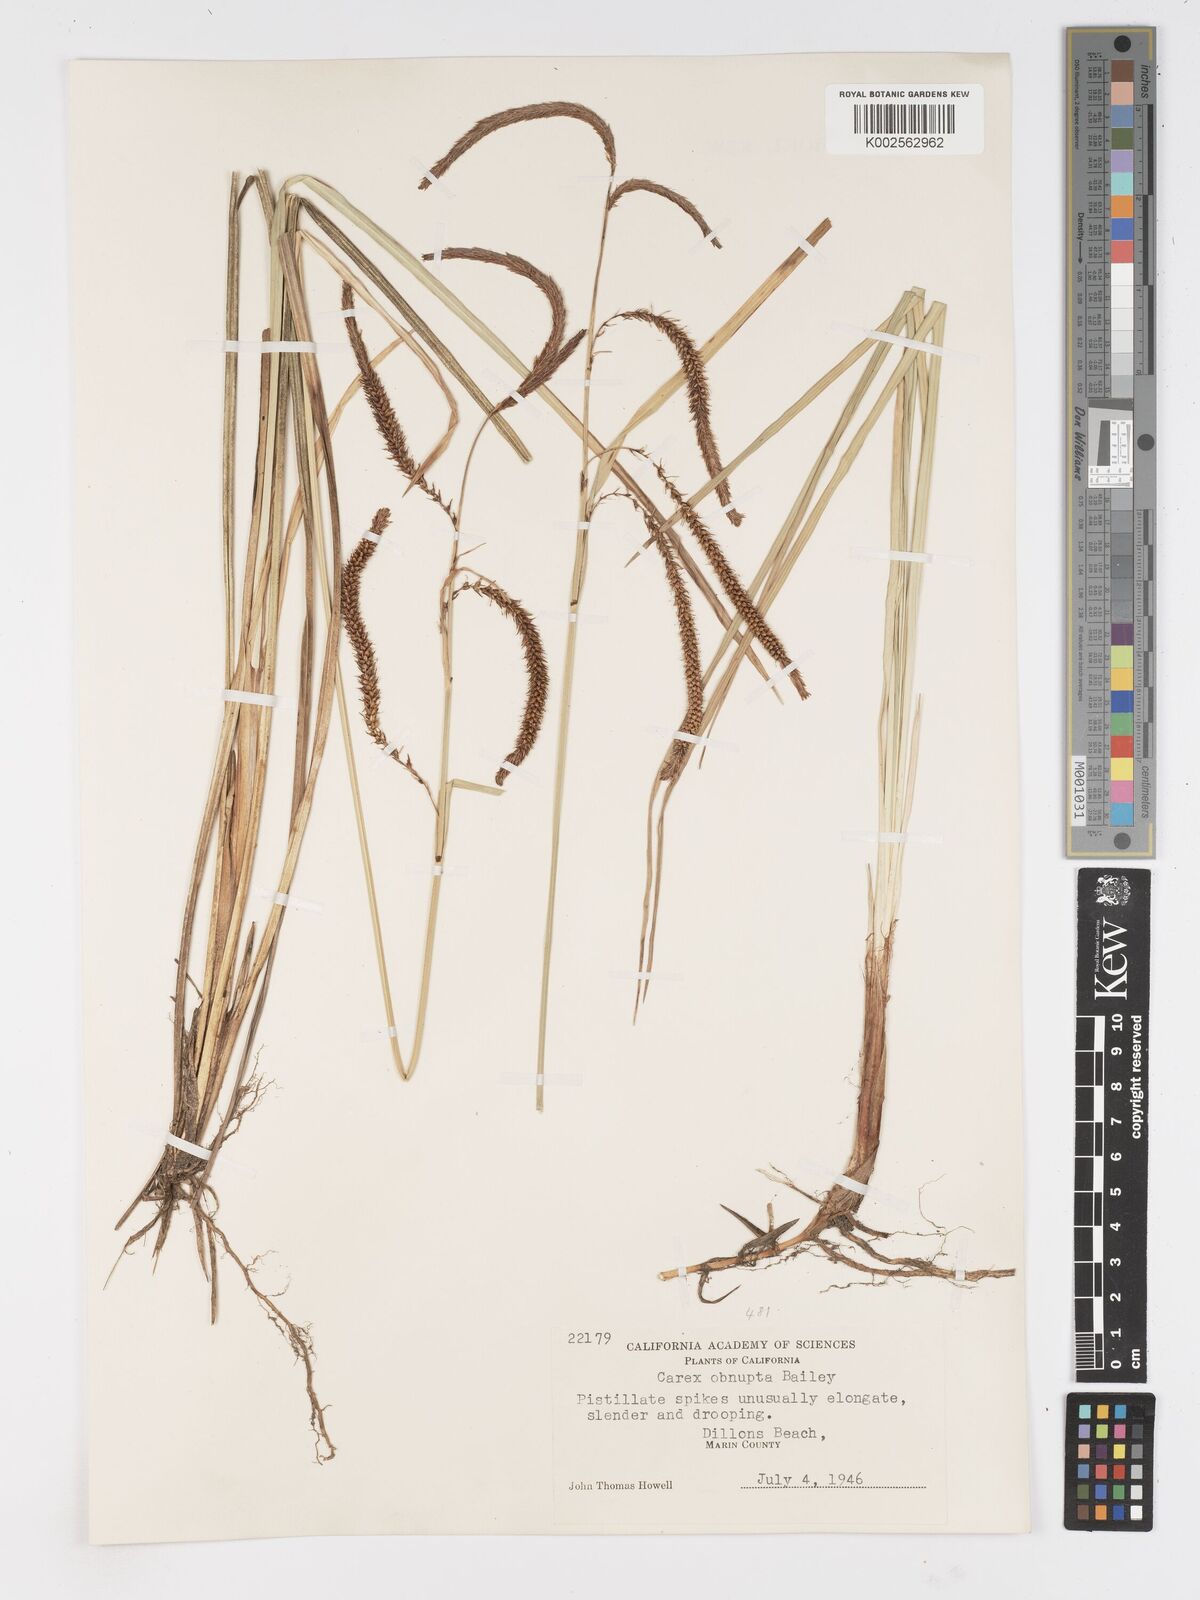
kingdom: Plantae
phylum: Tracheophyta
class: Liliopsida
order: Poales
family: Cyperaceae
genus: Carex
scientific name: Carex obnupta
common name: Slough sedge
